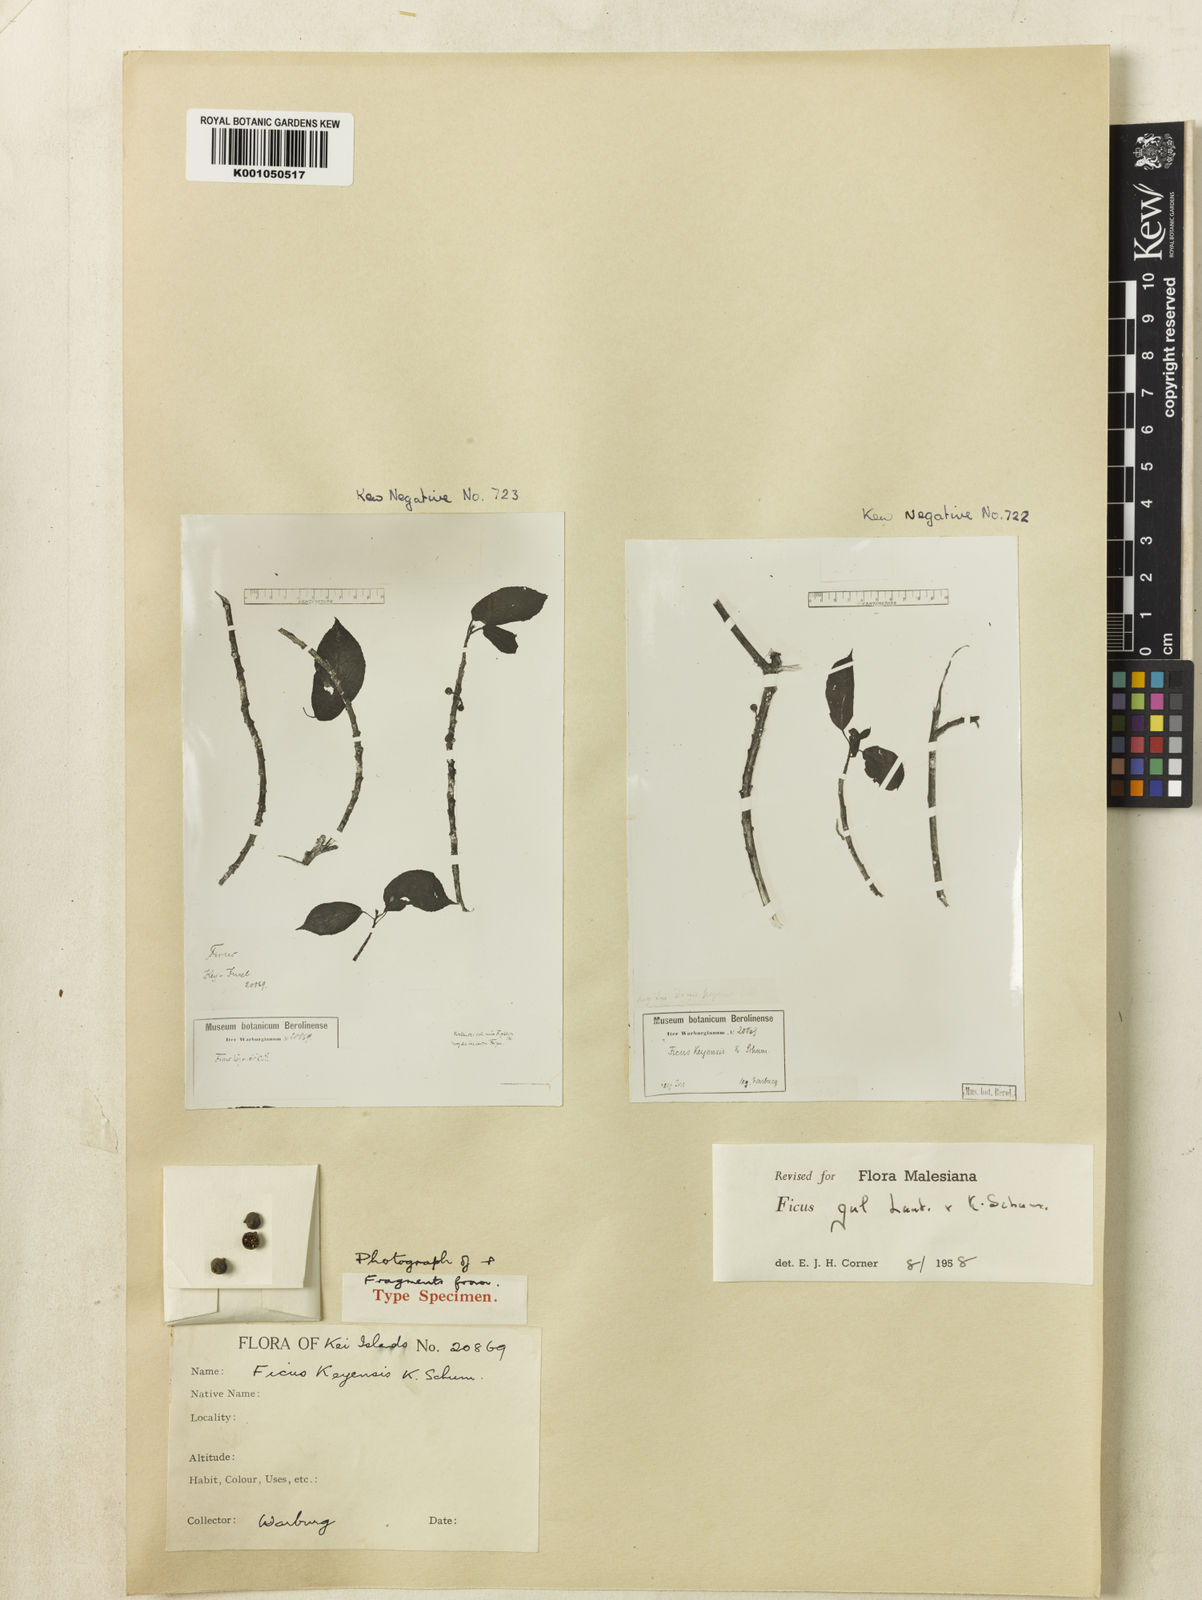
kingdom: Plantae
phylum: Tracheophyta
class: Magnoliopsida
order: Rosales
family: Moraceae
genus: Ficus
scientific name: Ficus gul
